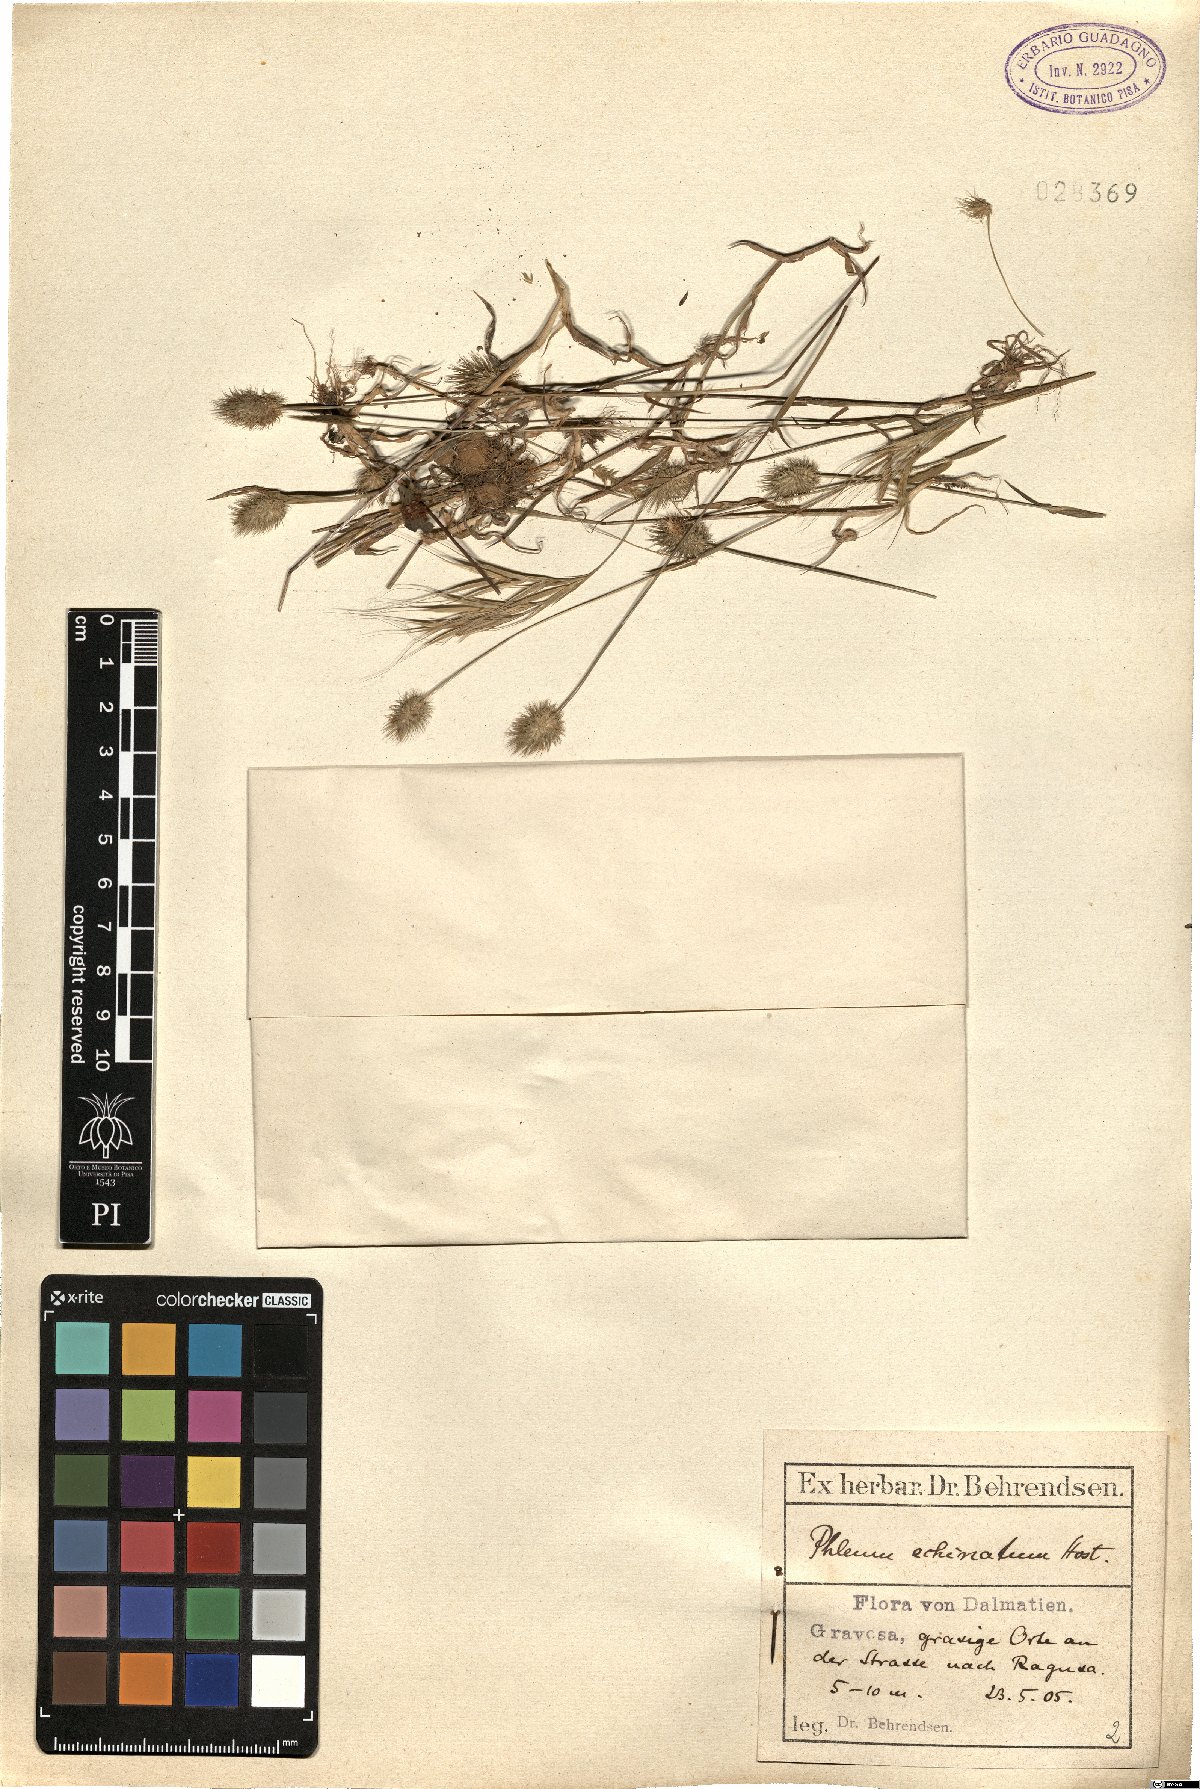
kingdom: Plantae
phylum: Tracheophyta
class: Liliopsida
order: Poales
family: Poaceae
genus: Phleum
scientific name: Phleum echinatum
